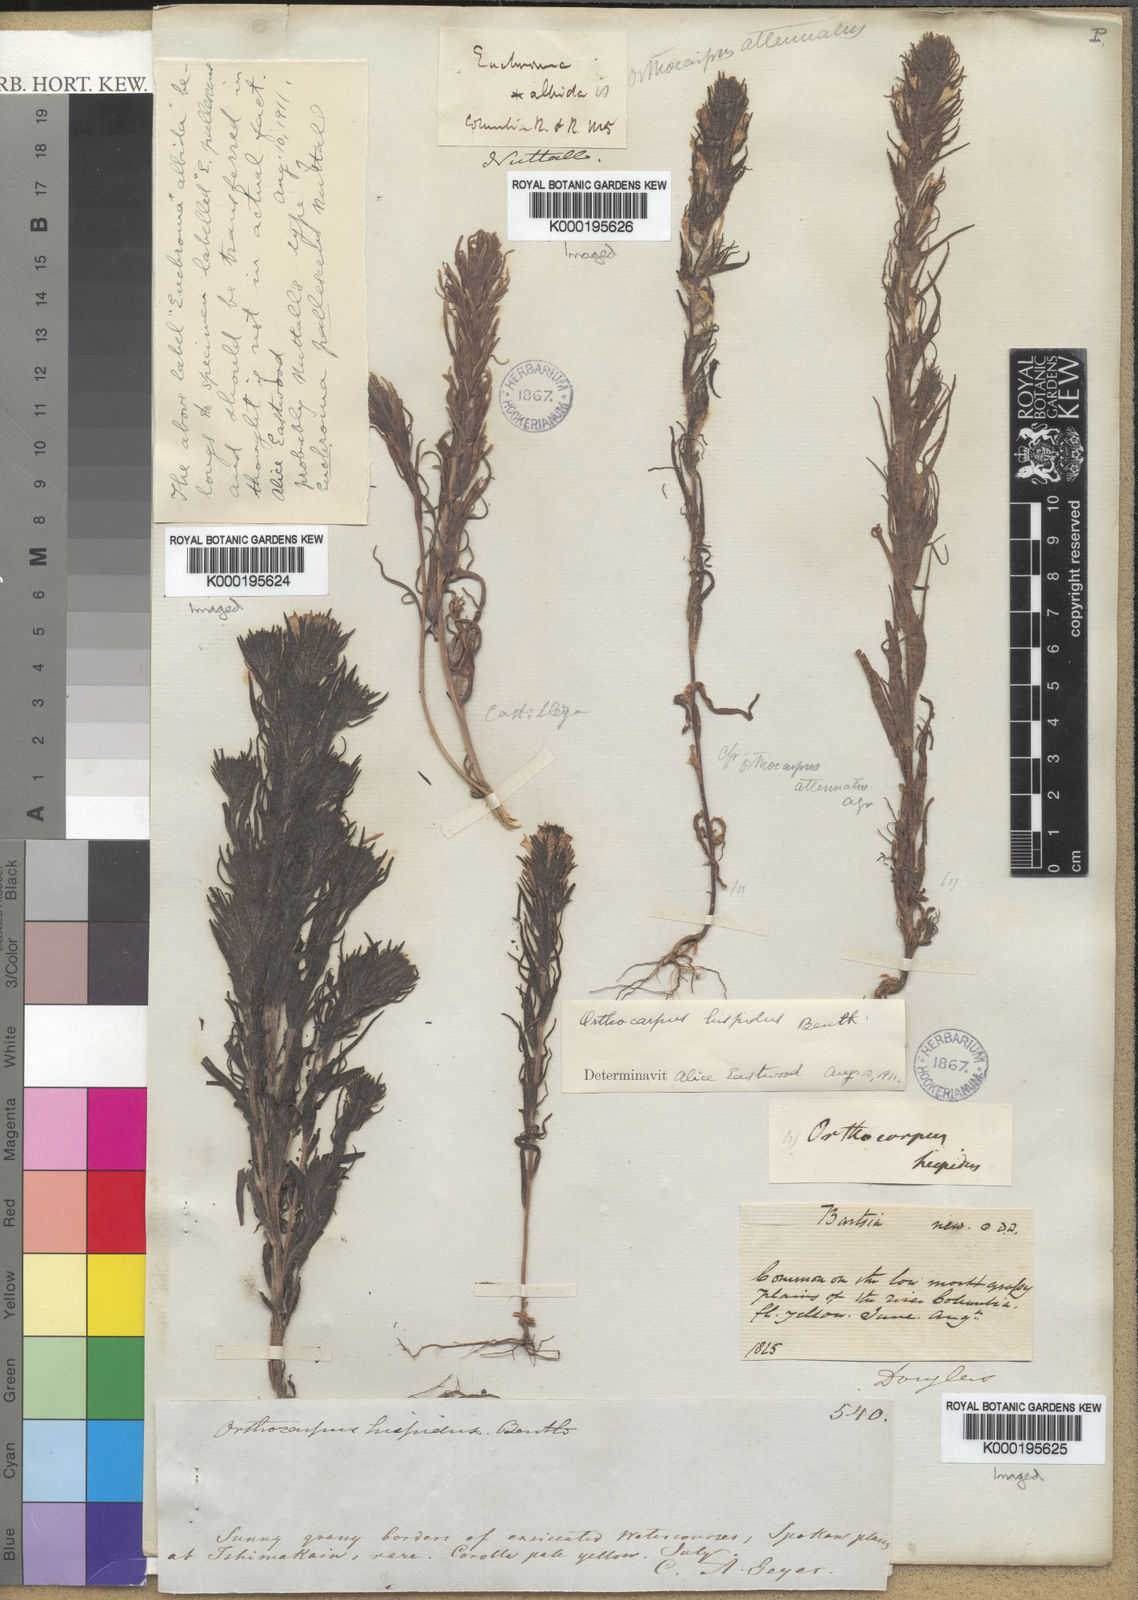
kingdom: Plantae
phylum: Tracheophyta
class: Magnoliopsida
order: Lamiales
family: Orobanchaceae
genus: Castilleja
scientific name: Castilleja attenuata
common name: Valley tassels
